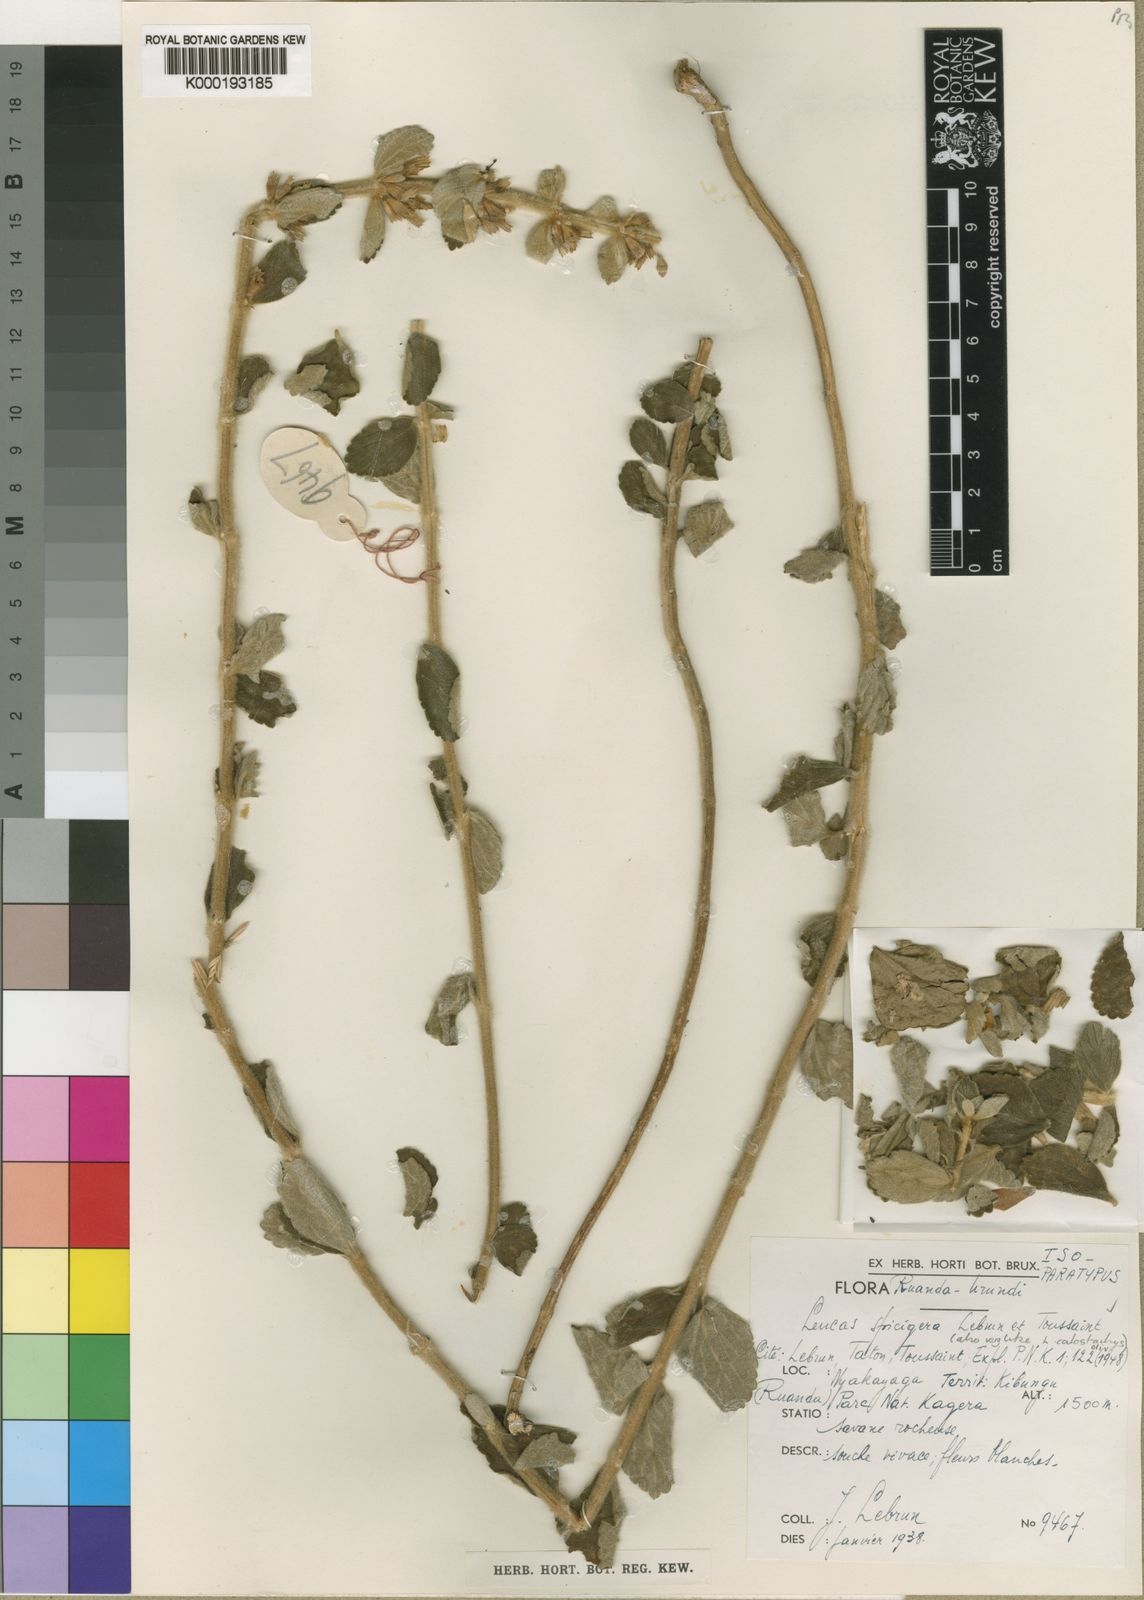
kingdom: Plantae
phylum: Tracheophyta
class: Magnoliopsida
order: Lamiales
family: Lamiaceae
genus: Leucas
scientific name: Leucas calostachys
